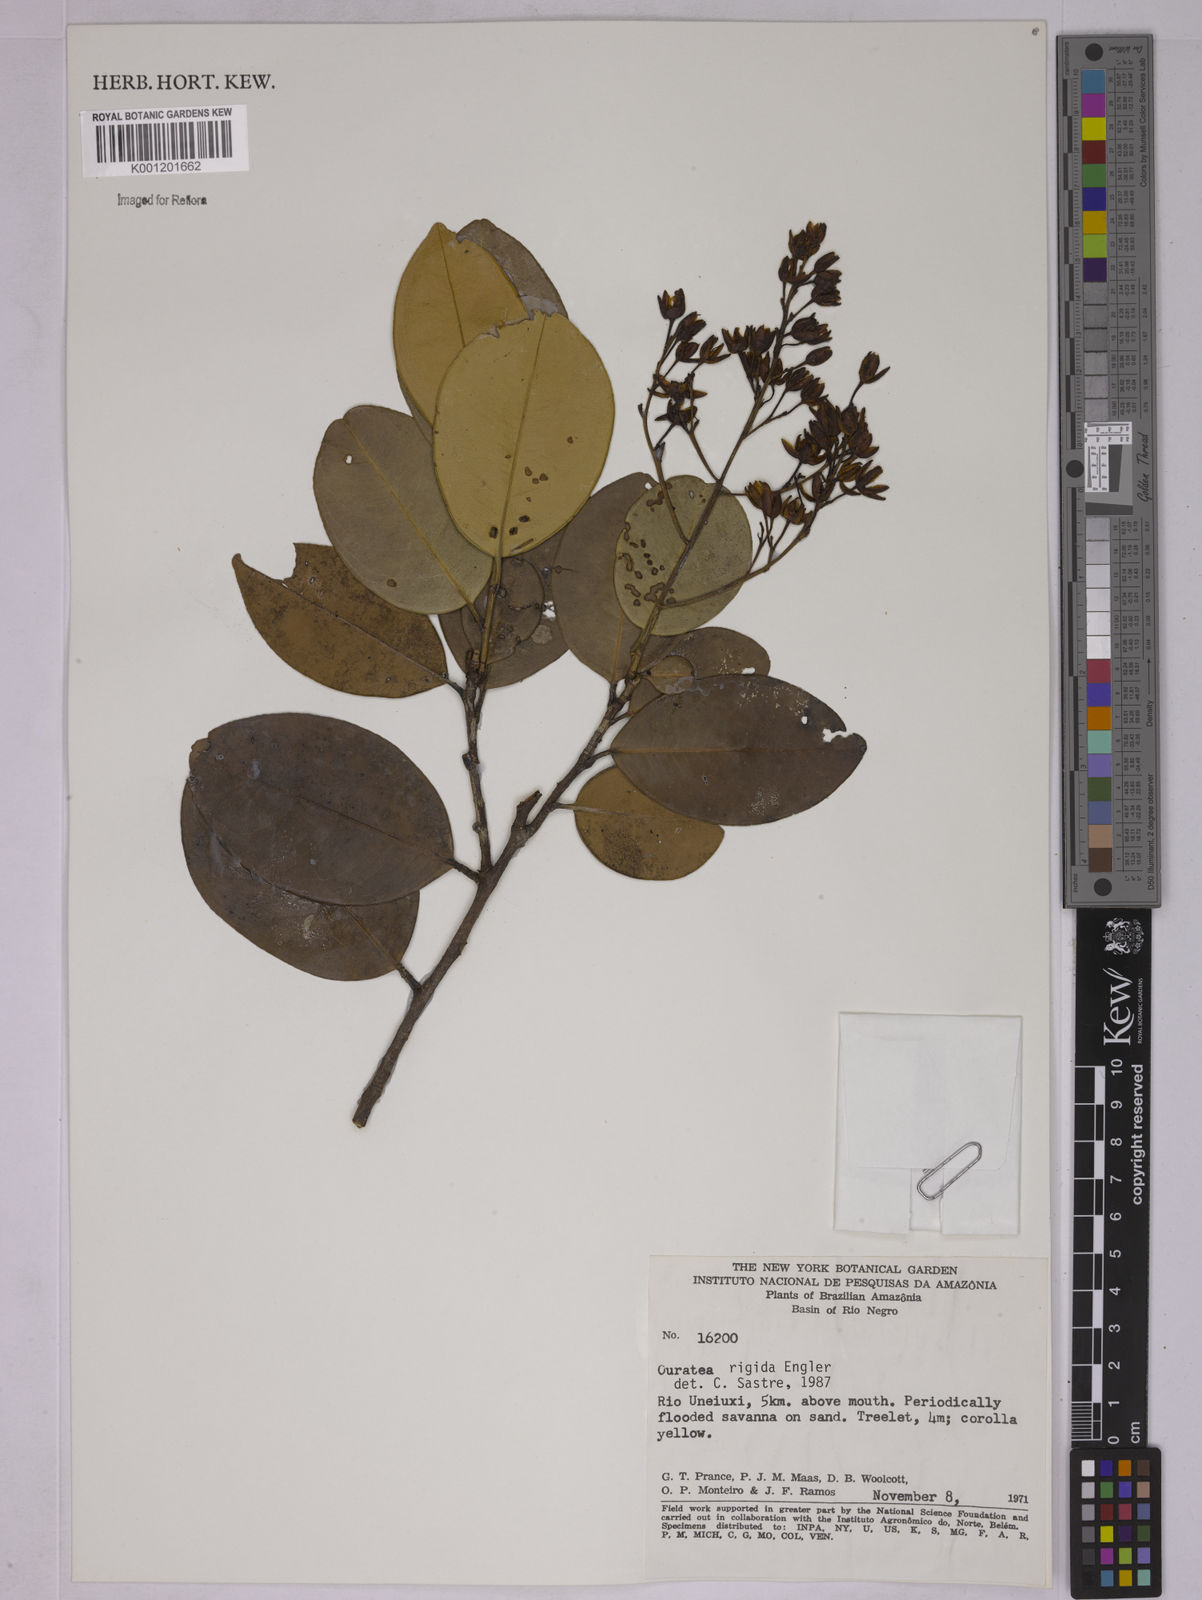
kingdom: Plantae
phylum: Tracheophyta
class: Magnoliopsida
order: Malpighiales
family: Ochnaceae
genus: Ouratea
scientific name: Ouratea rigida
